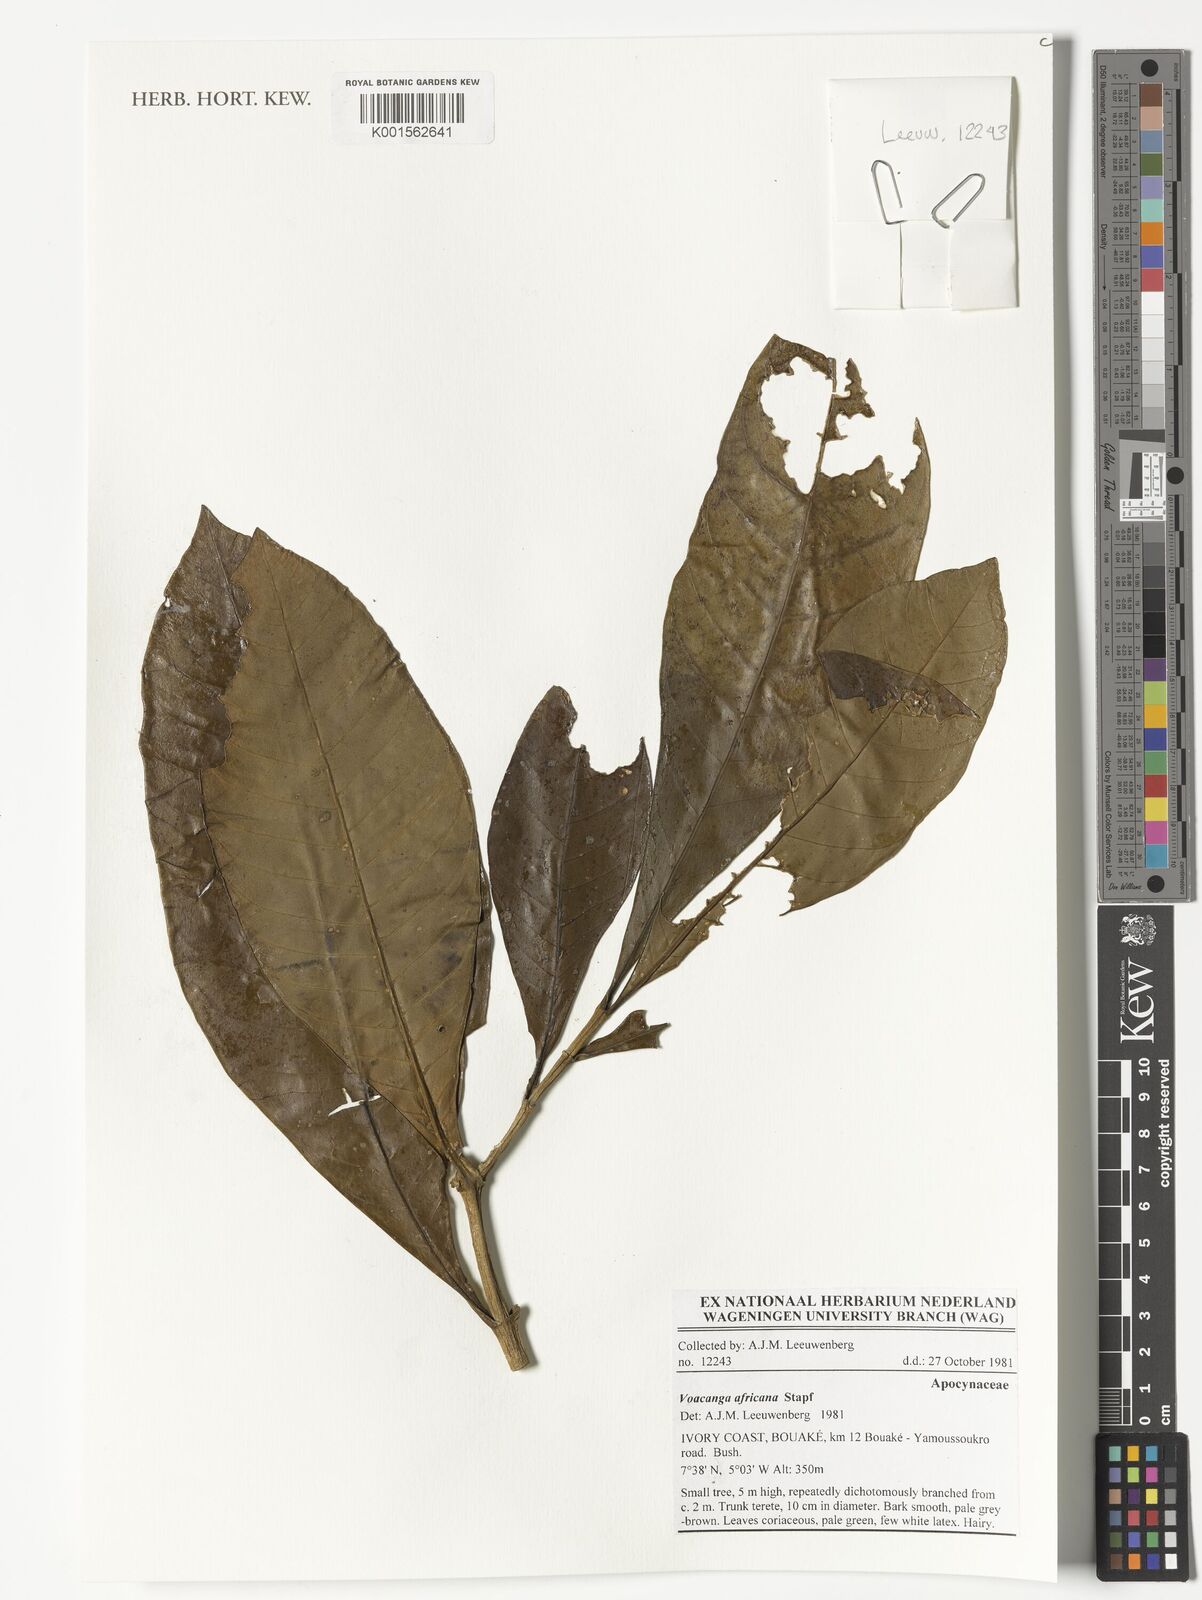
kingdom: Plantae
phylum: Tracheophyta
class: Magnoliopsida
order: Gentianales
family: Apocynaceae
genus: Voacanga
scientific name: Voacanga africana
